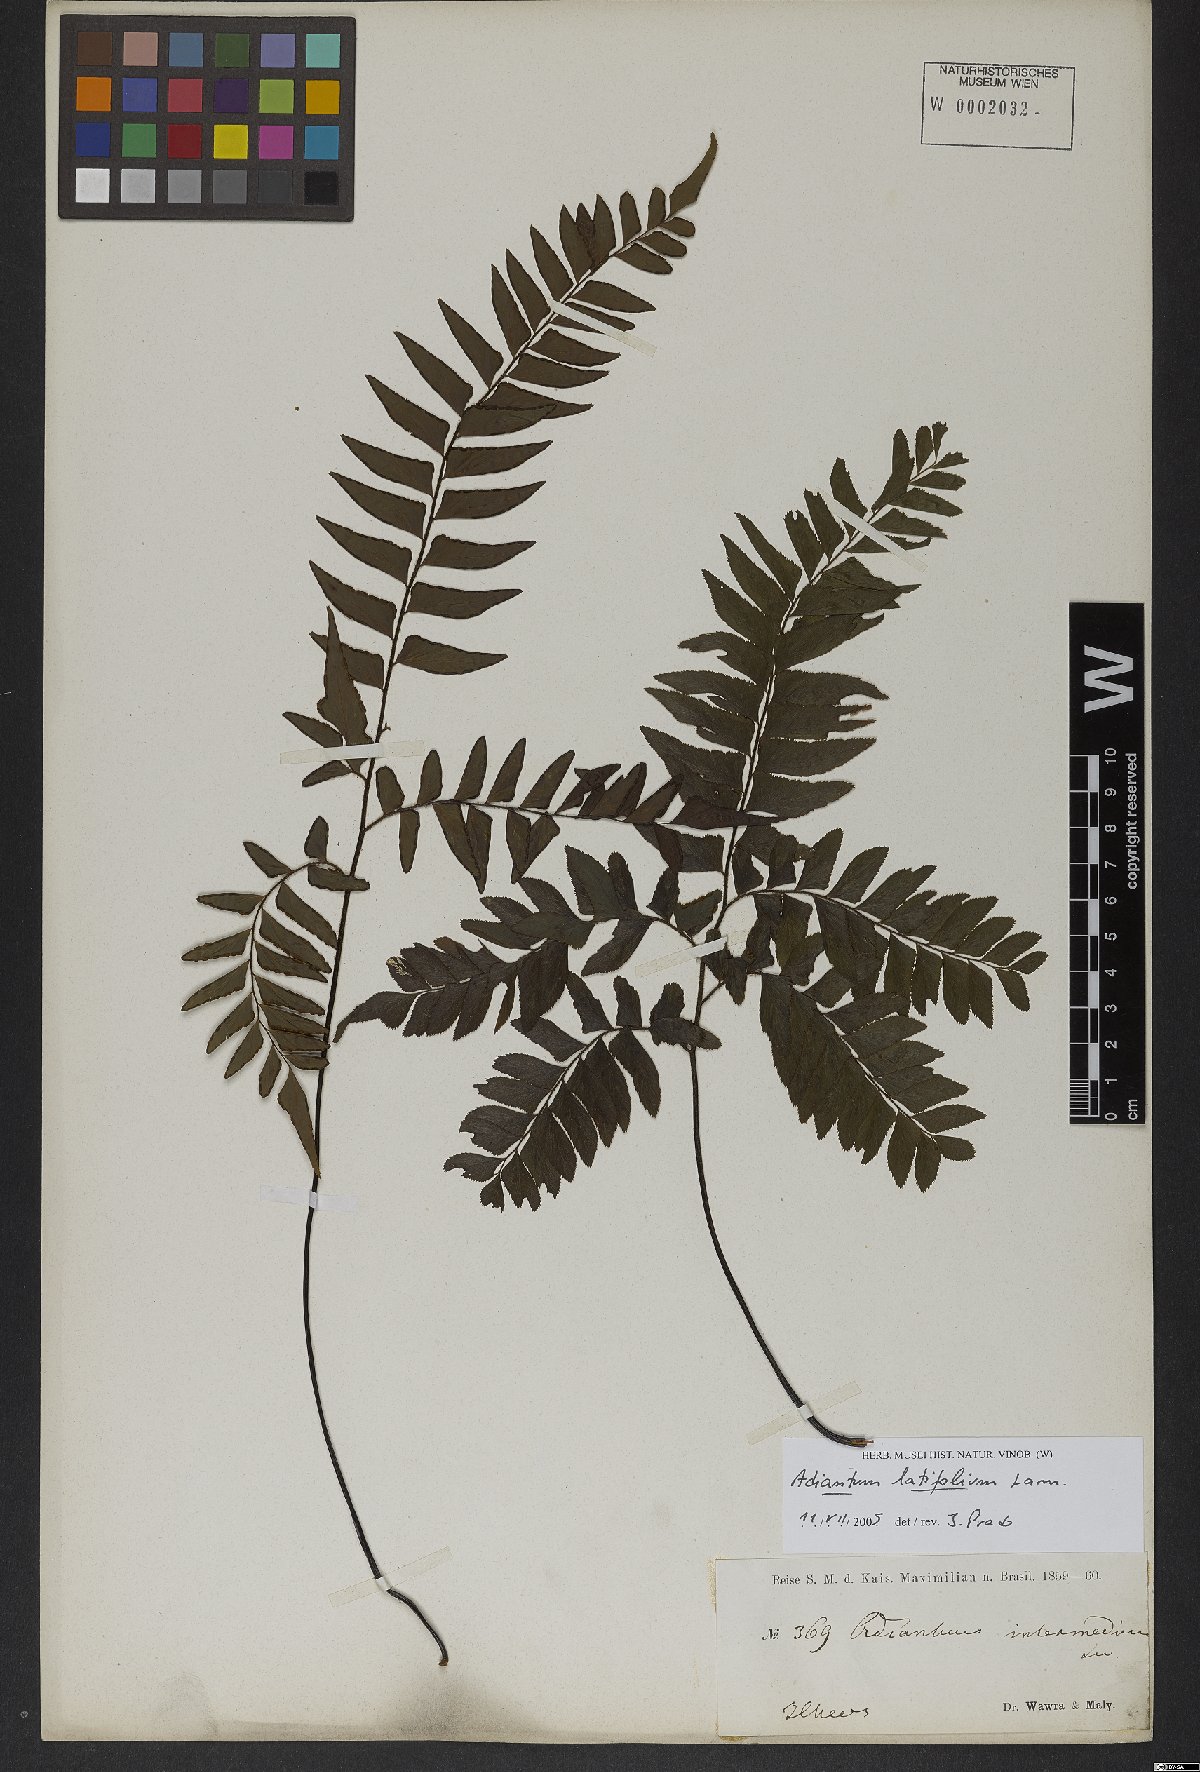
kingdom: Plantae
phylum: Tracheophyta
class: Polypodiopsida
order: Polypodiales
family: Pteridaceae
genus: Adiantum
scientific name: Adiantum latifolium
